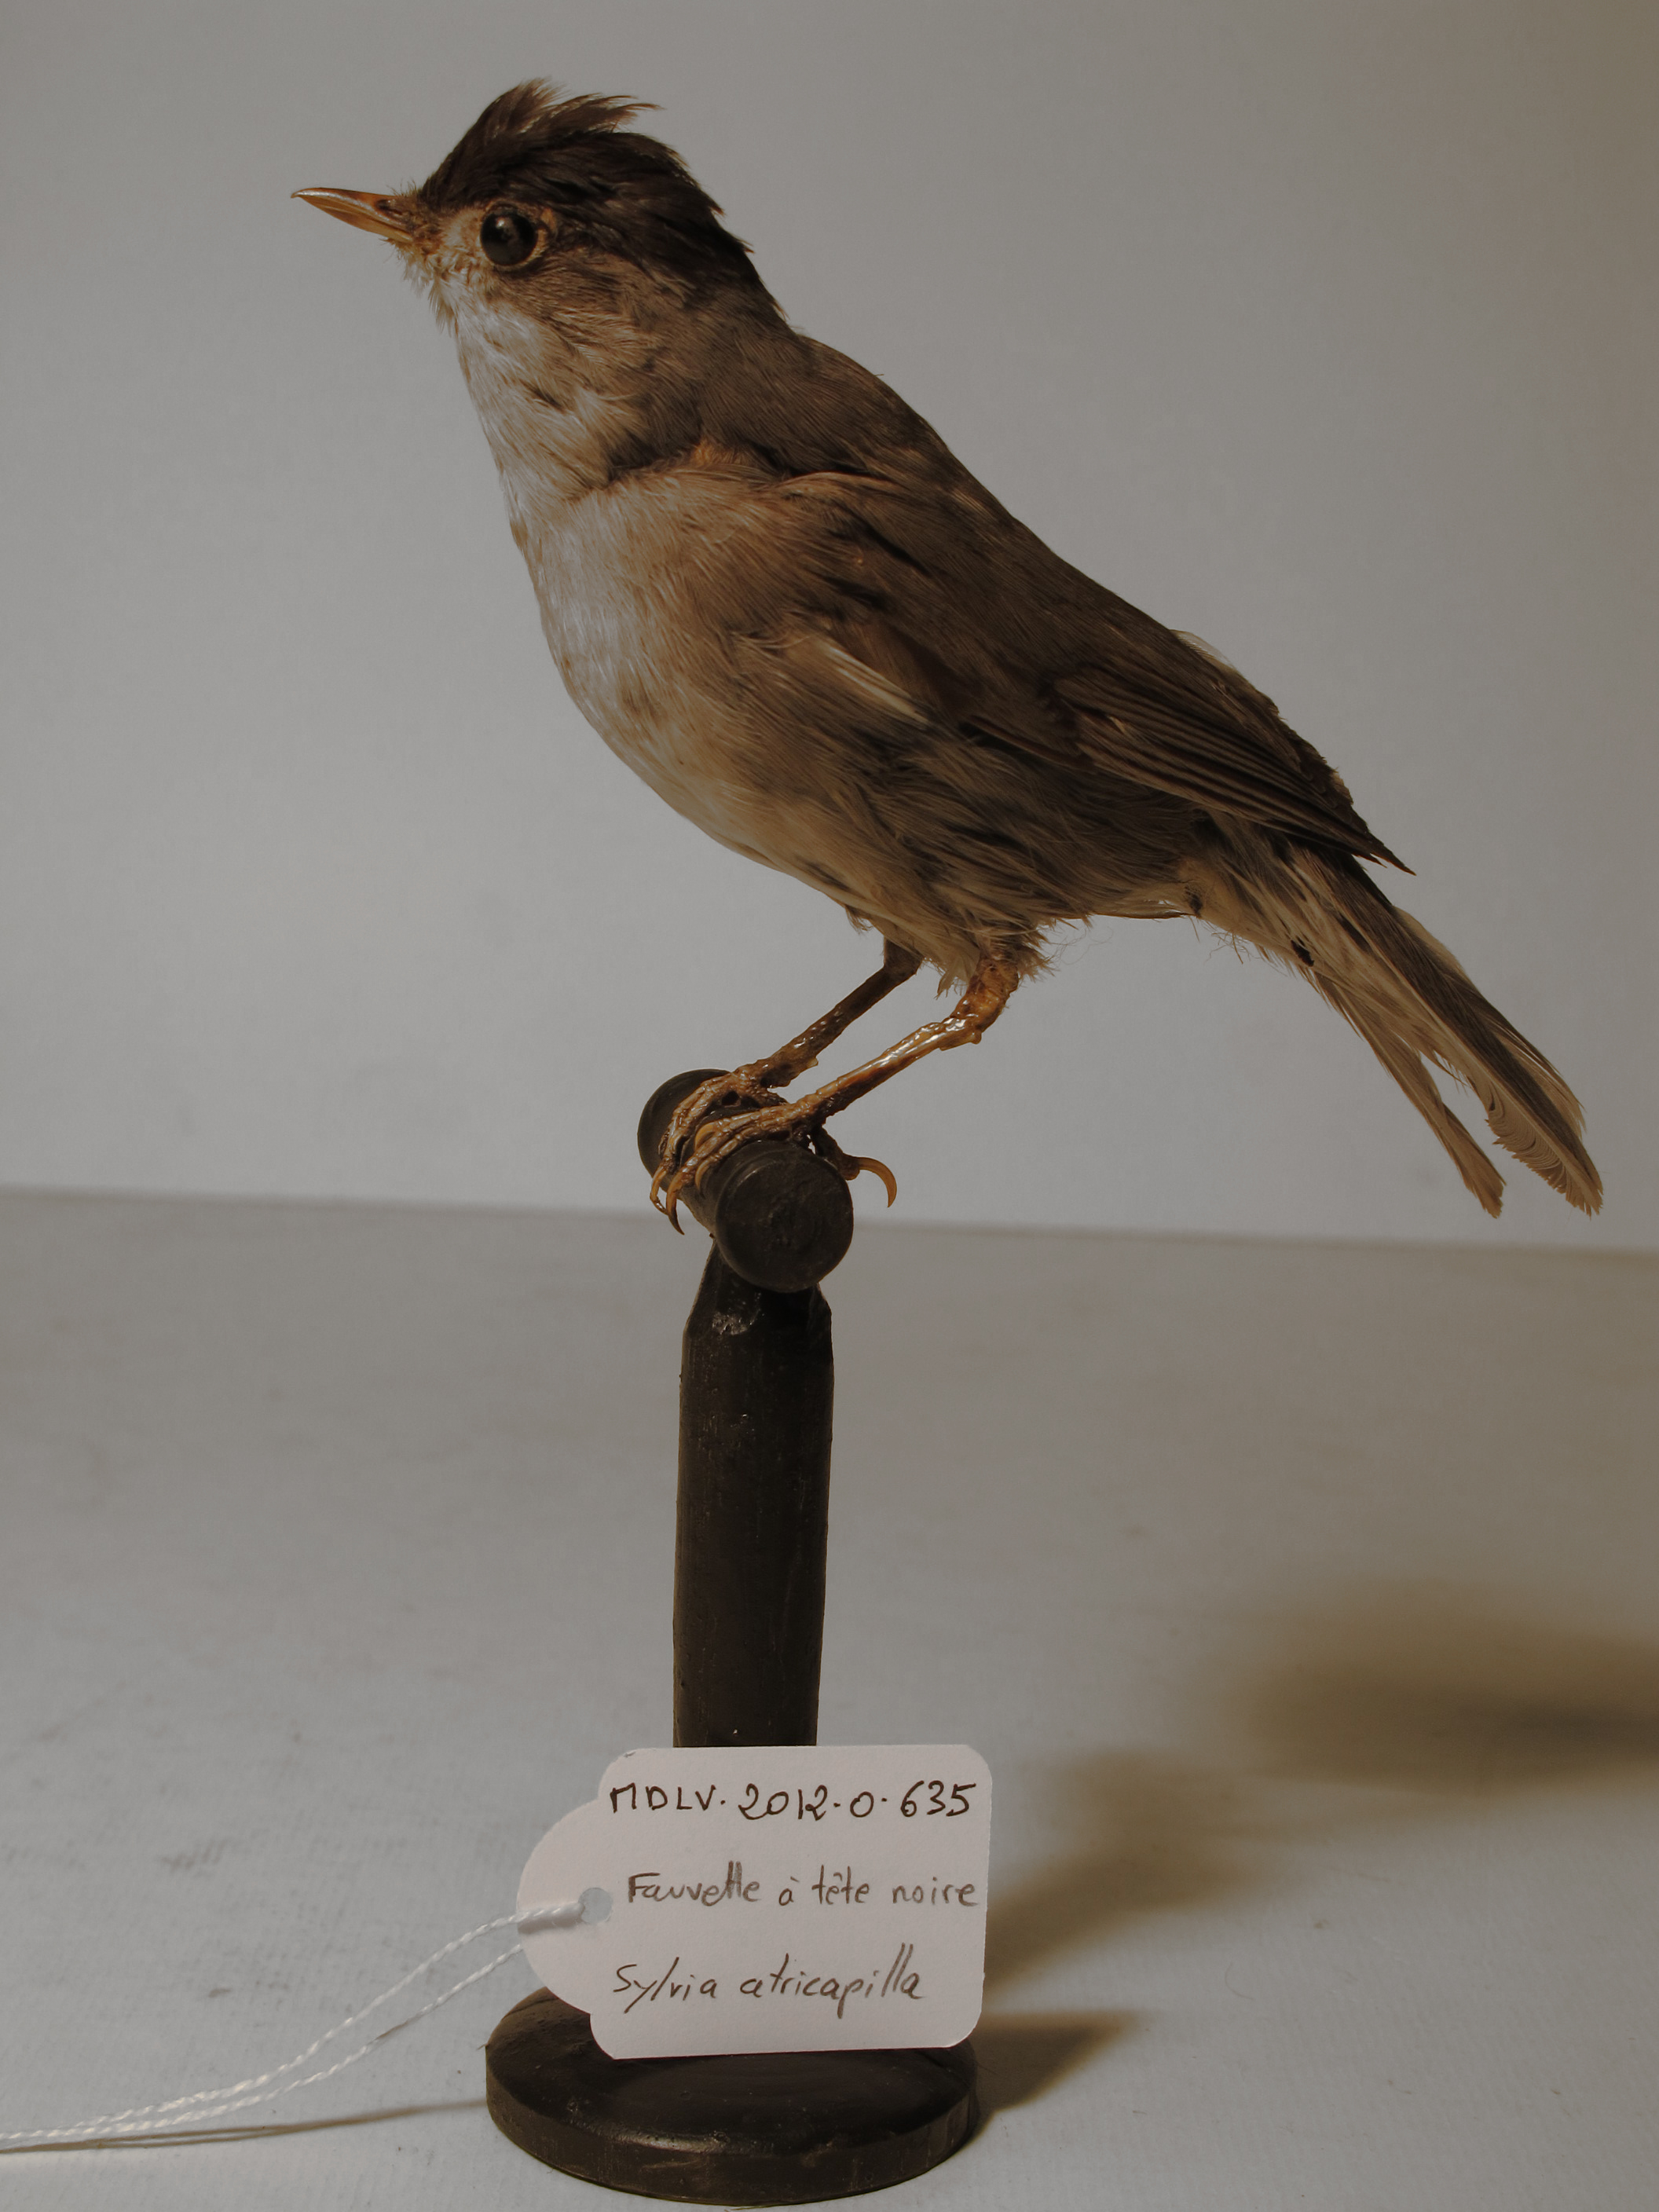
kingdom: Animalia
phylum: Chordata
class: Aves
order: Passeriformes
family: Sylviidae
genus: Sylvia
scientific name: Sylvia atricapilla
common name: Blackcap
